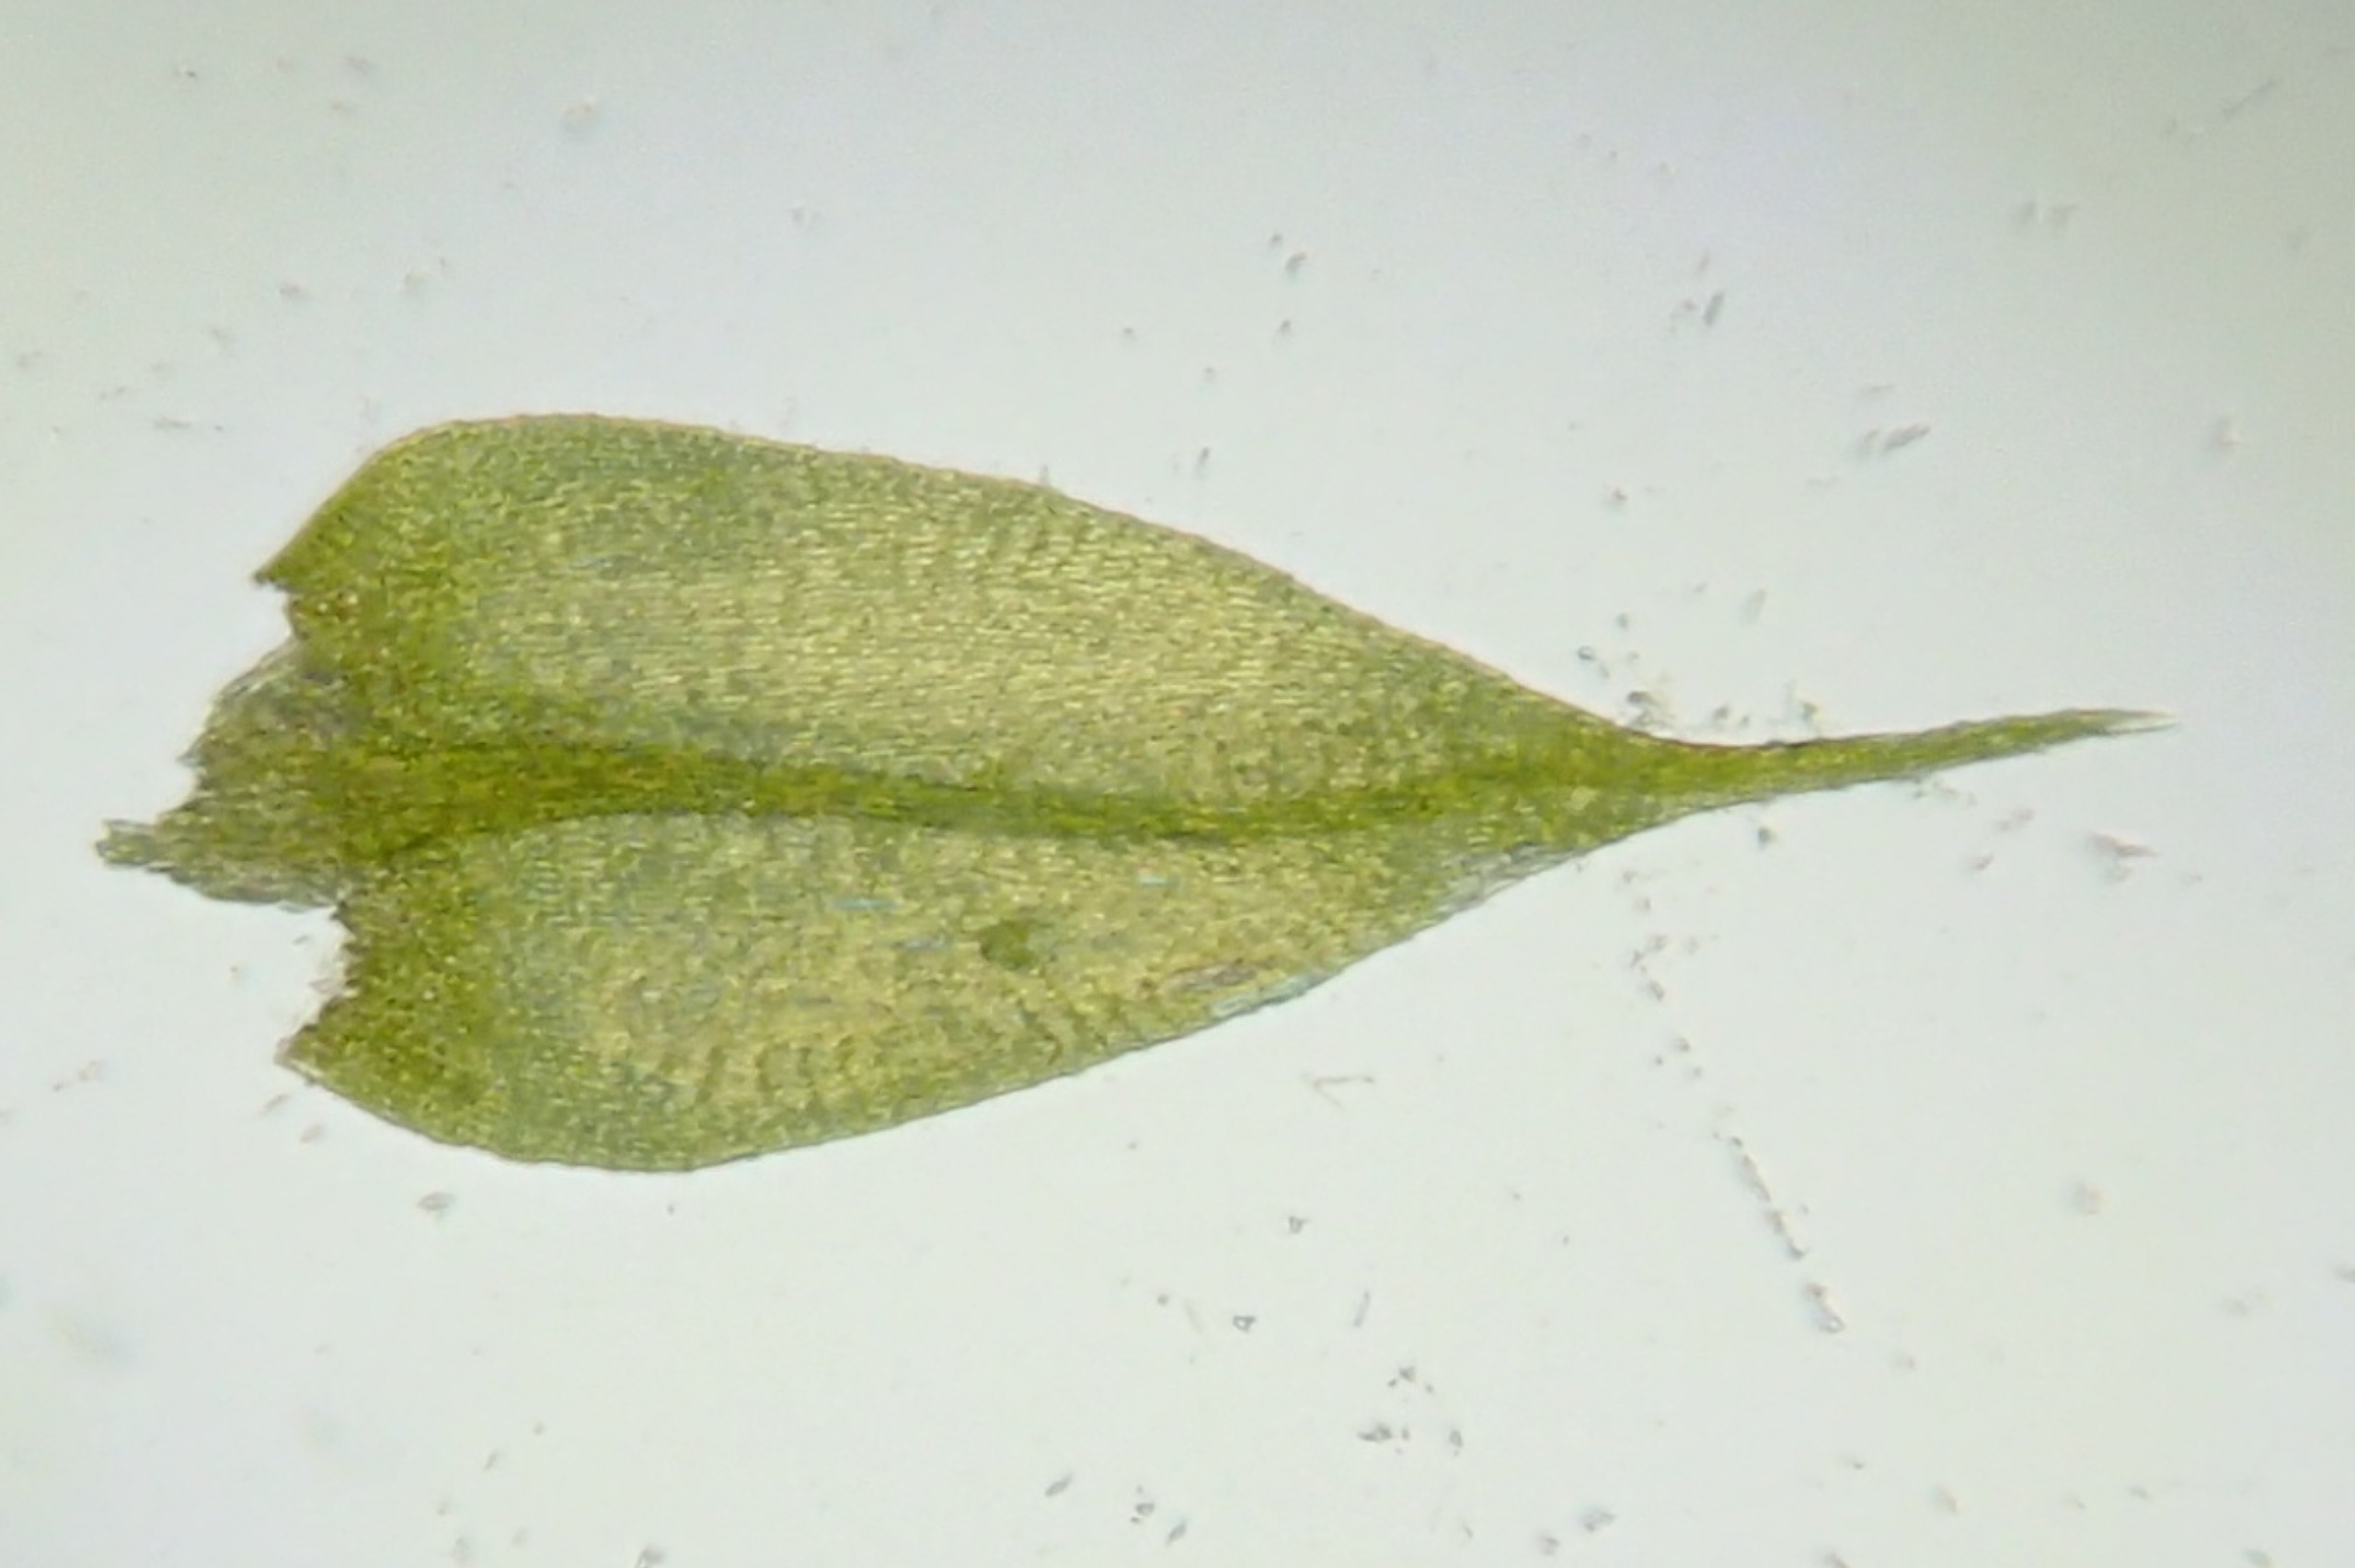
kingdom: Plantae
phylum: Bryophyta
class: Bryopsida
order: Hypnales
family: Brachytheciaceae
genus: Sciuro-hypnum
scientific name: Sciuro-hypnum populeum
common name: Park-kortkapsel
